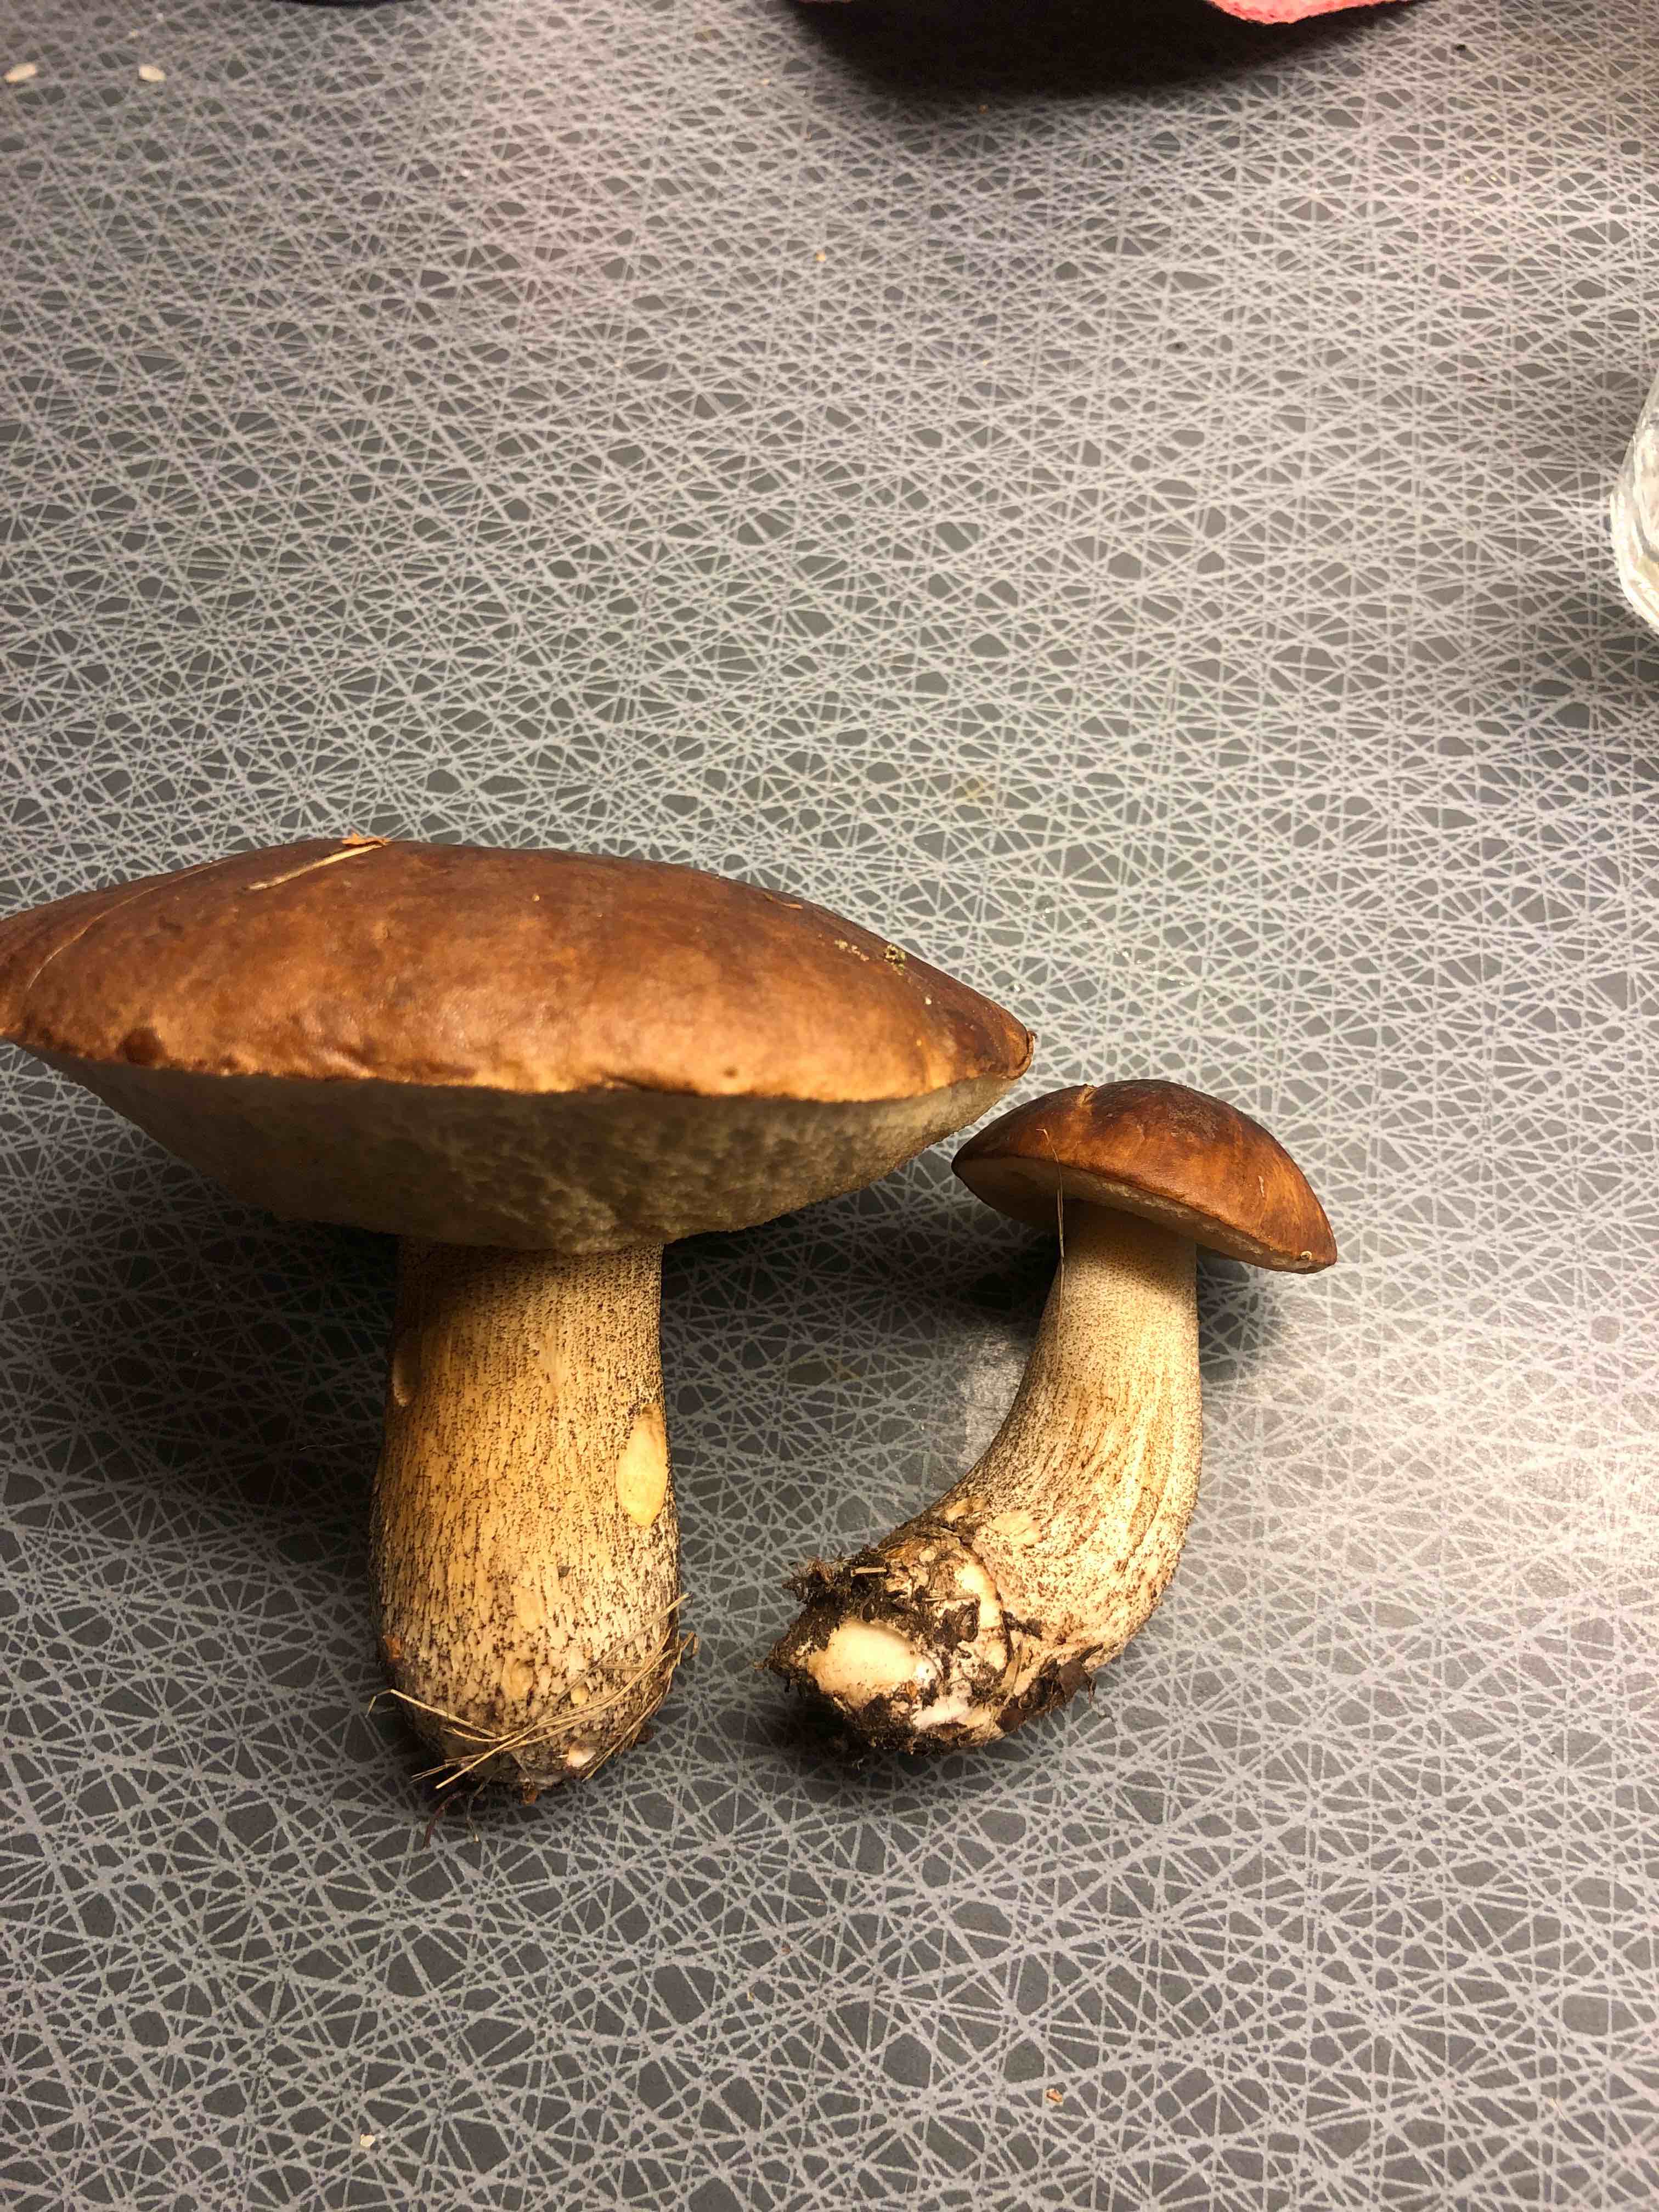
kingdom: Fungi
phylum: Basidiomycota
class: Agaricomycetes
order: Boletales
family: Boletaceae
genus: Leccinum
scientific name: Leccinum scabrum
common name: brun skælrørhat
